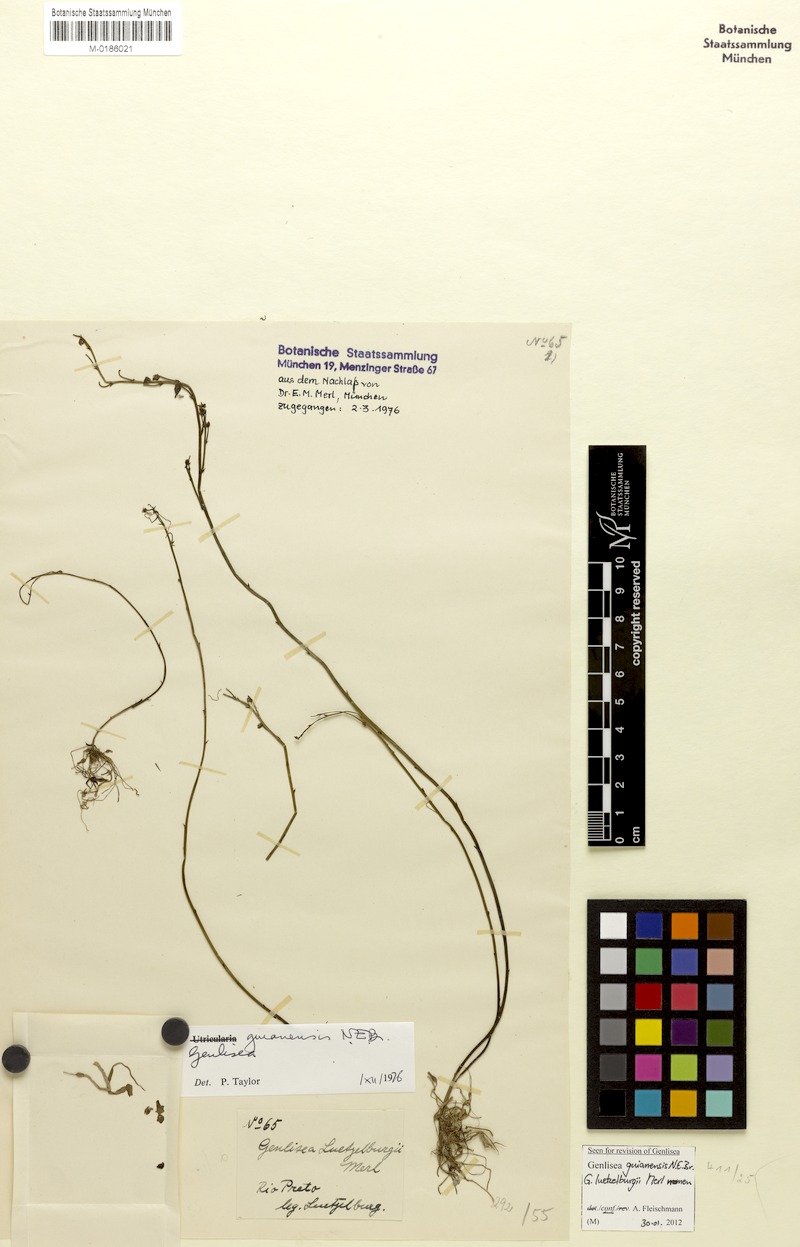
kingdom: Plantae
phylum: Tracheophyta
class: Magnoliopsida
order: Lamiales
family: Lentibulariaceae
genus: Genlisea
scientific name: Genlisea guianensis
